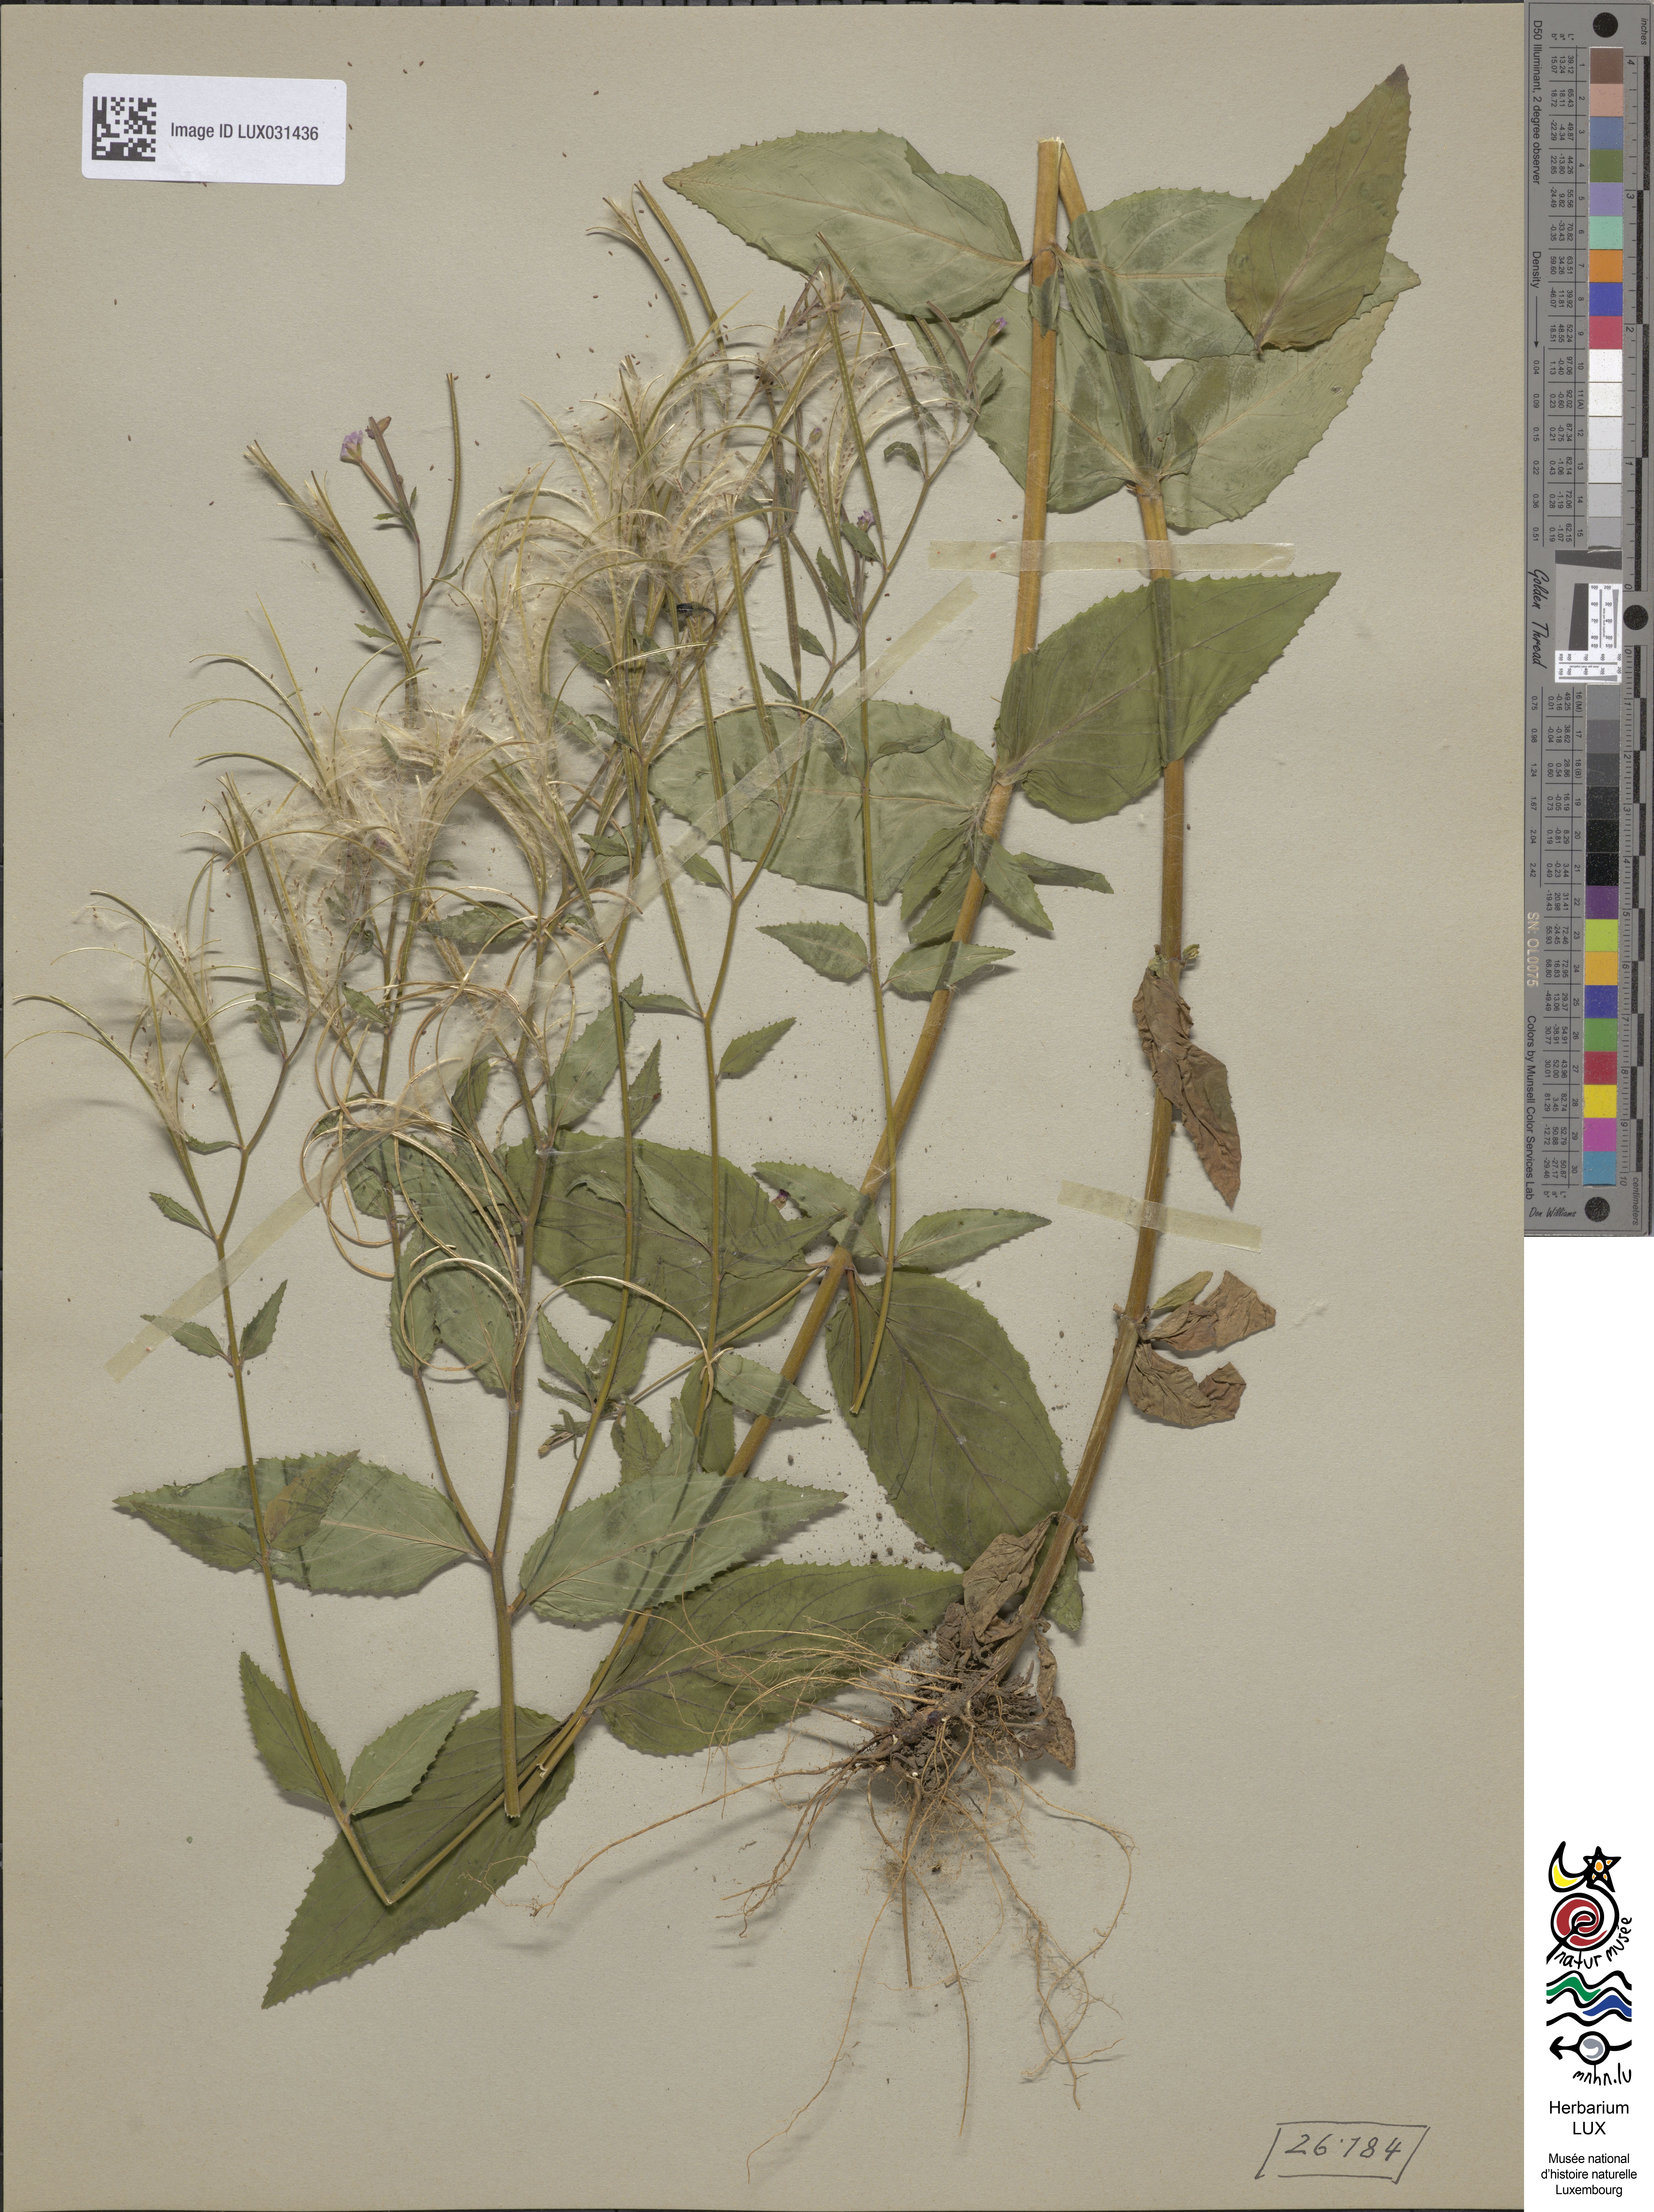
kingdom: Plantae
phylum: Tracheophyta
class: Magnoliopsida
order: Myrtales
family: Onagraceae
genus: Epilobium
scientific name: Epilobium montanum
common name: Broad-leaved willowherb
